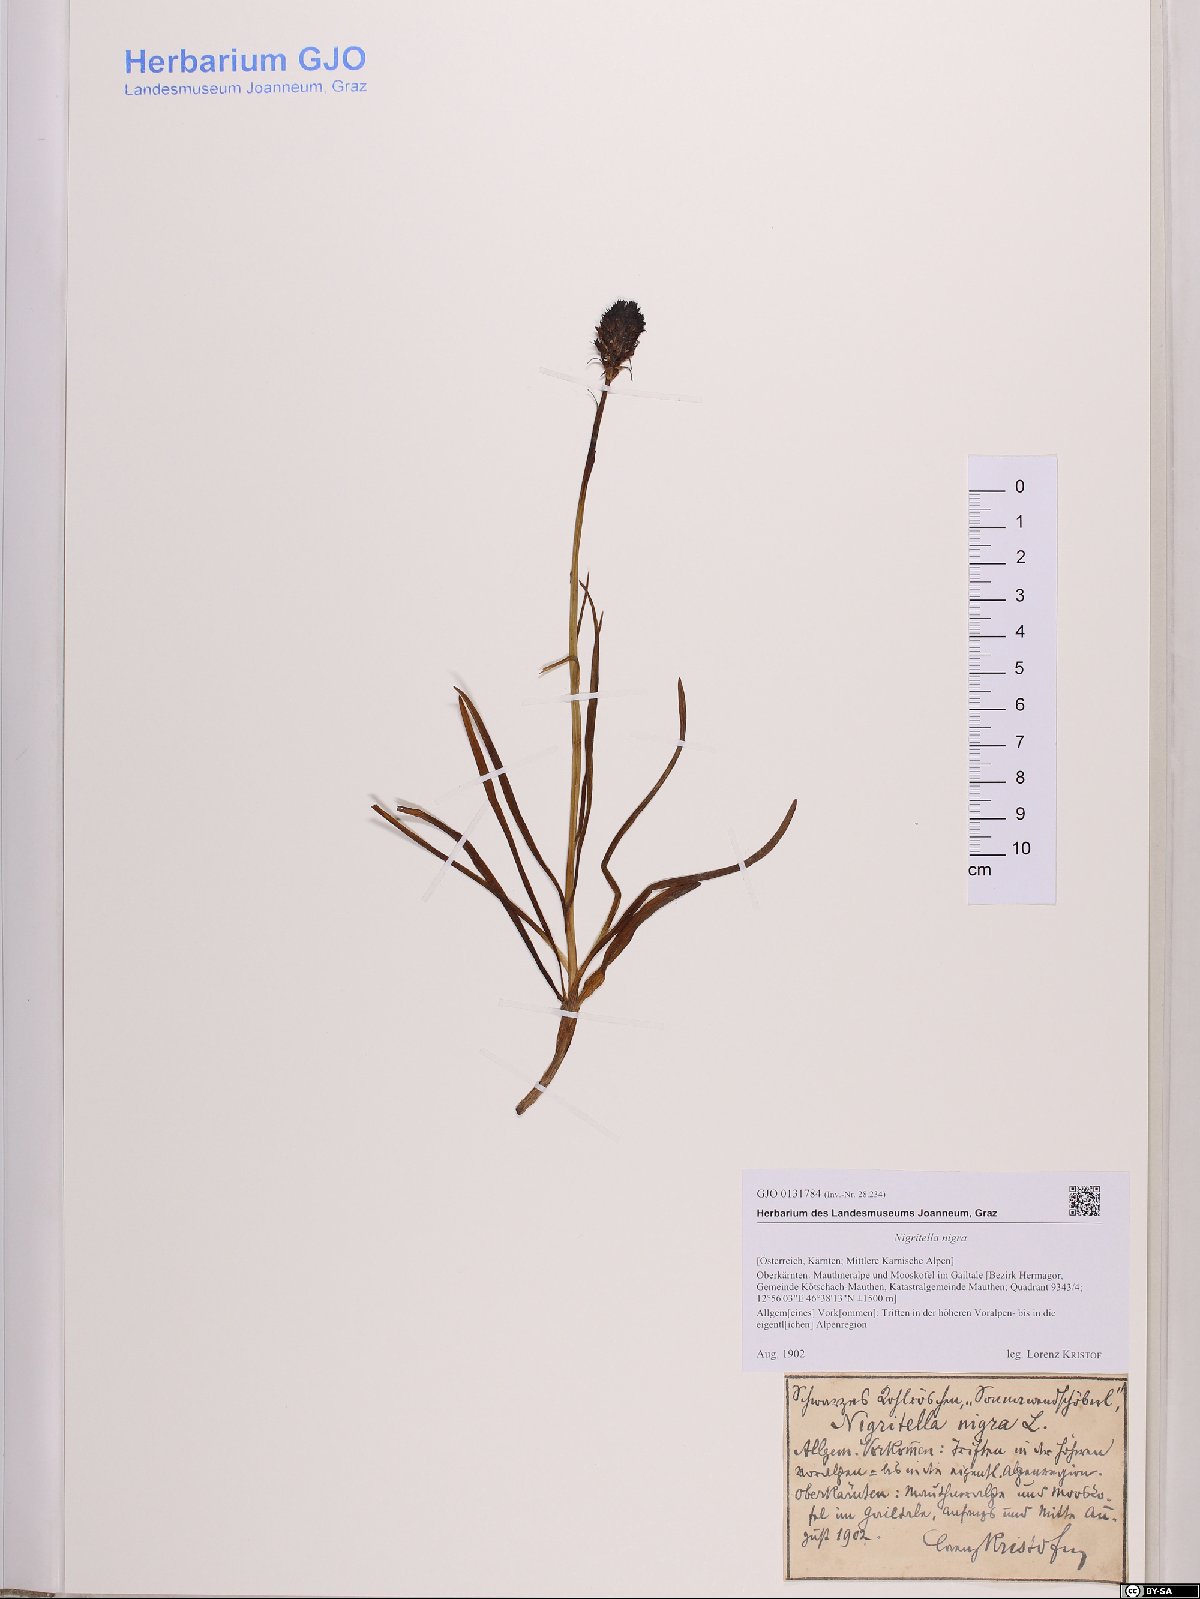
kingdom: Plantae
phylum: Tracheophyta
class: Liliopsida
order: Asparagales
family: Orchidaceae
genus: Gymnadenia
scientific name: Gymnadenia nigra
